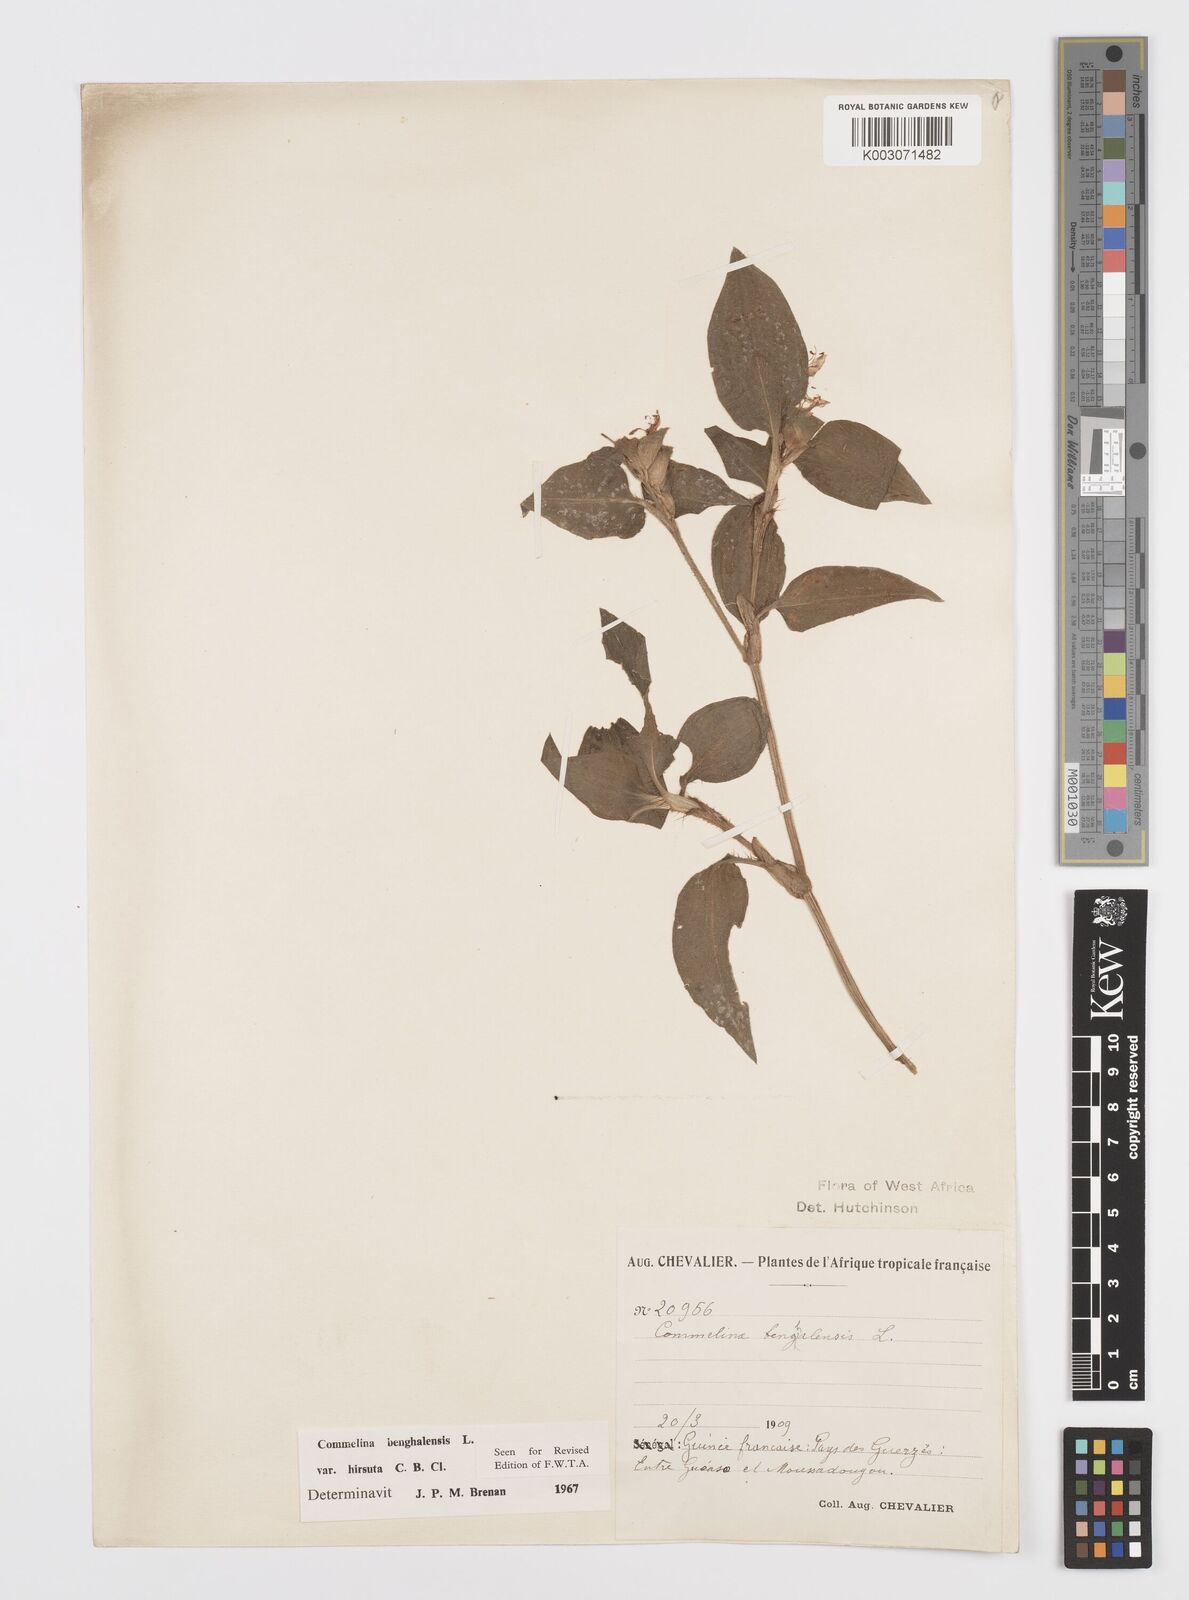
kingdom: Plantae
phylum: Tracheophyta
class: Liliopsida
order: Commelinales
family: Commelinaceae
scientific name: Commelinaceae
